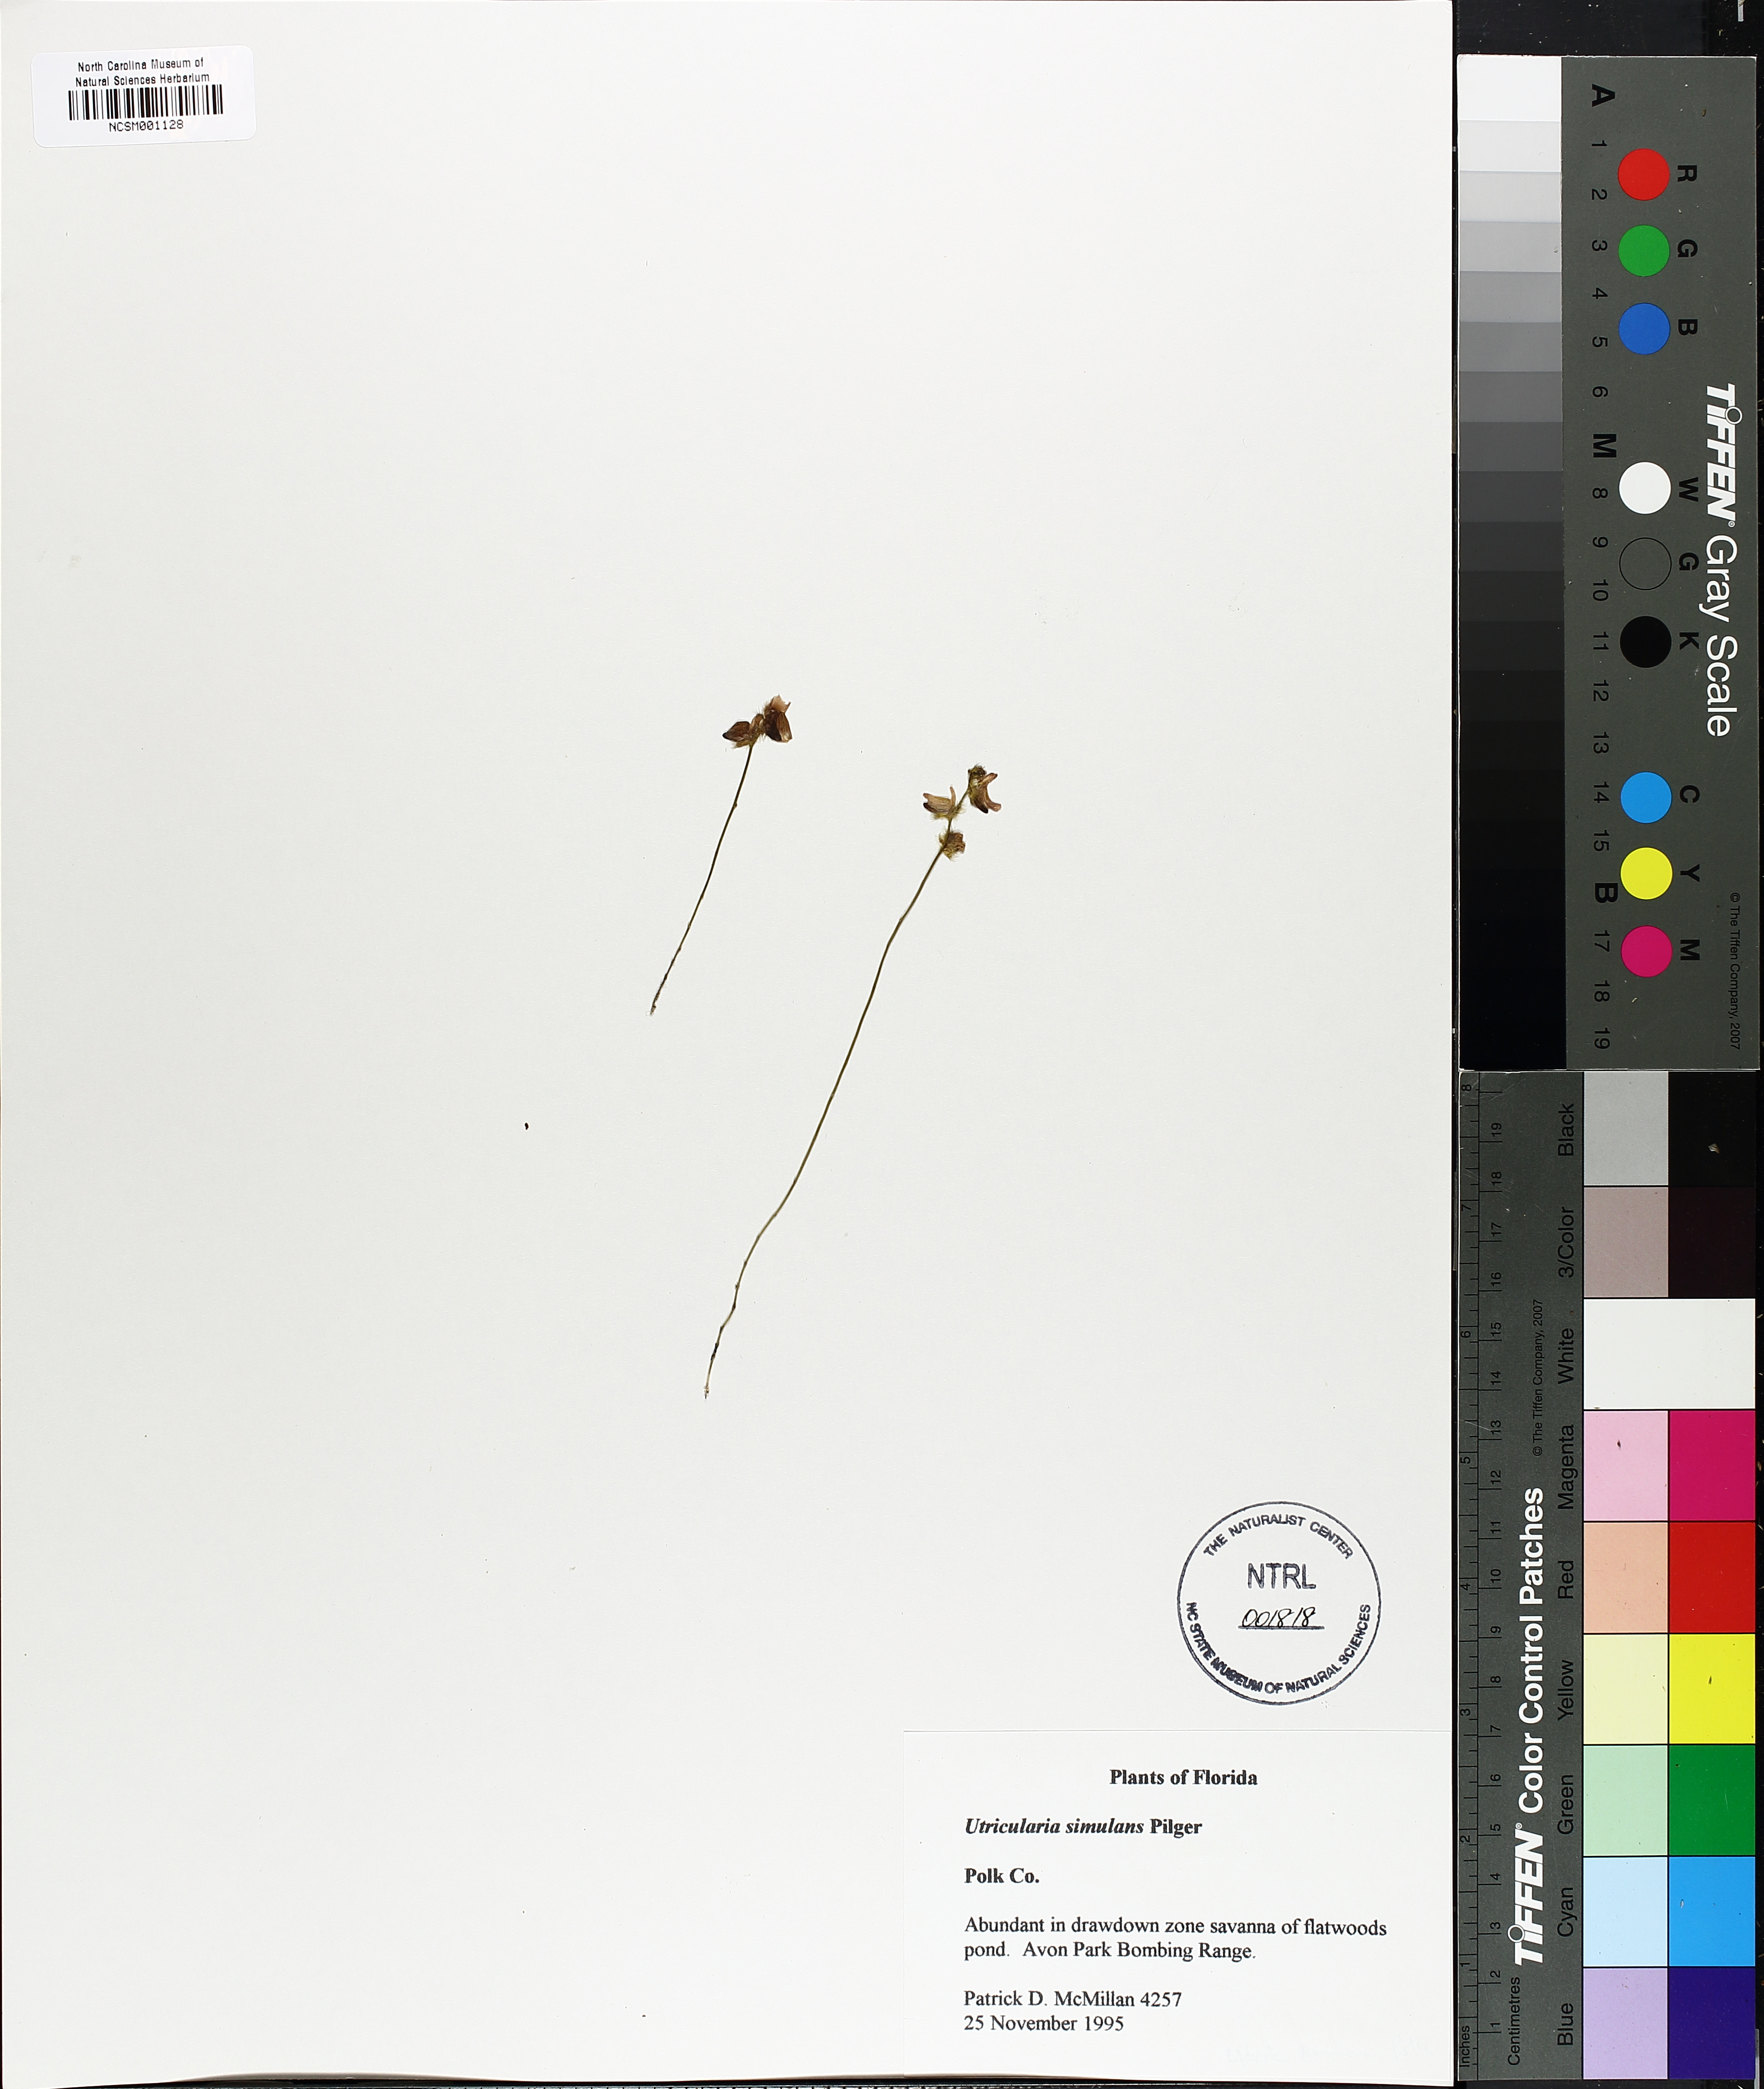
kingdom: Plantae
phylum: Tracheophyta
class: Magnoliopsida
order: Lamiales
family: Lentibulariaceae
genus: Utricularia
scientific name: Utricularia simulans
